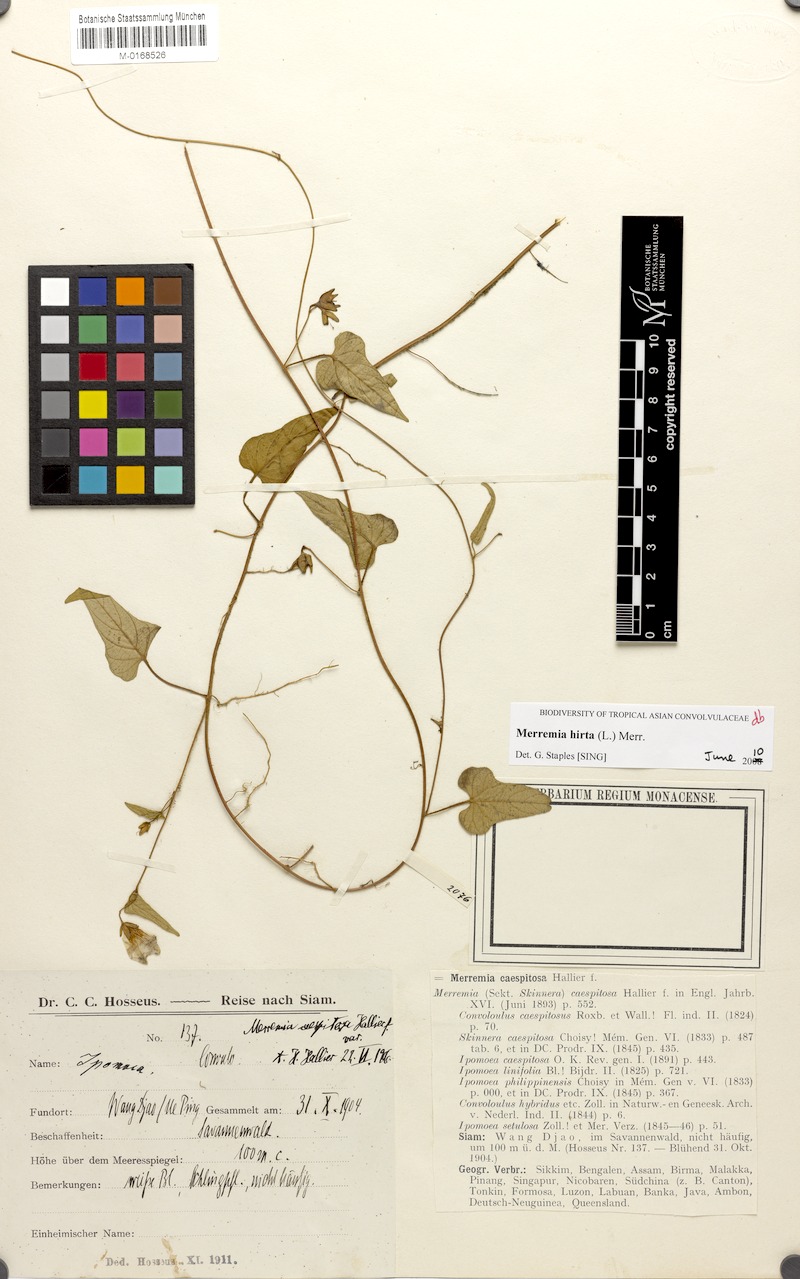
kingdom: Plantae
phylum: Tracheophyta
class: Magnoliopsida
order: Solanales
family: Convolvulaceae
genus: Merremia
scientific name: Merremia hirta
